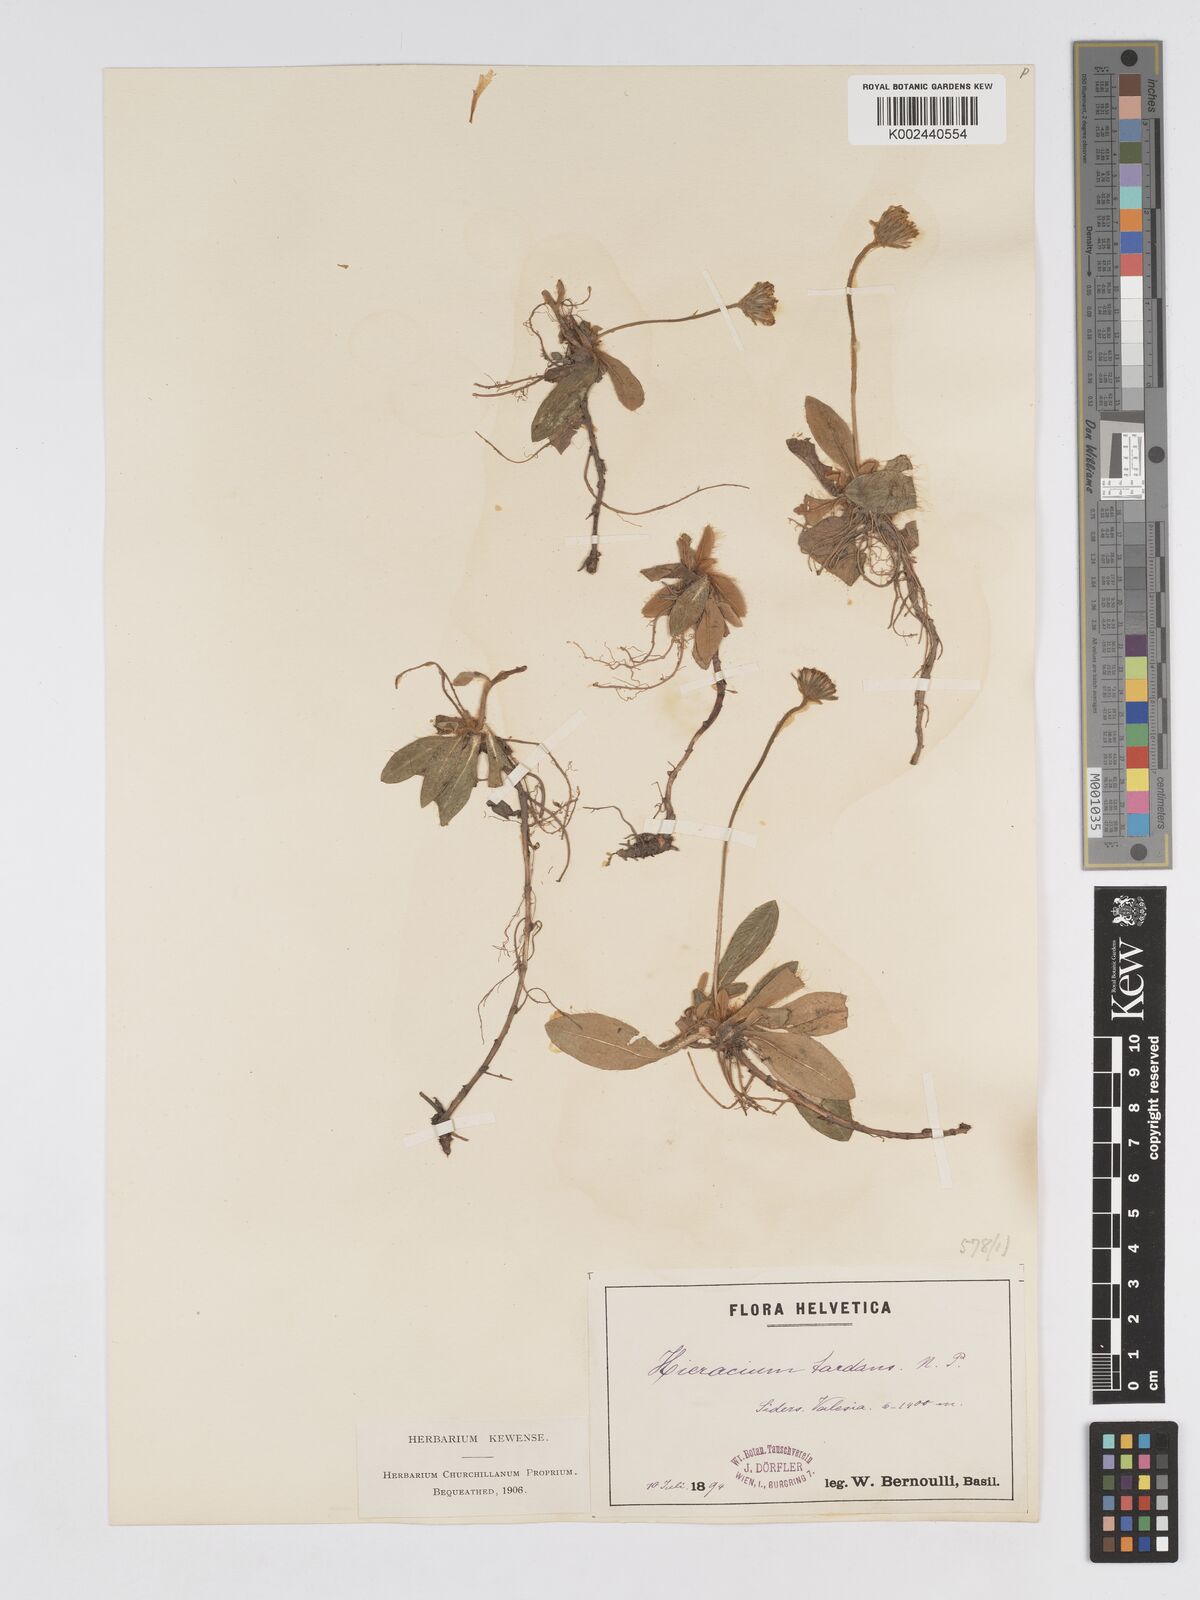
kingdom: Plantae
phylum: Tracheophyta
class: Magnoliopsida
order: Asterales
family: Asteraceae
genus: Pilosella
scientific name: Pilosella tardans
